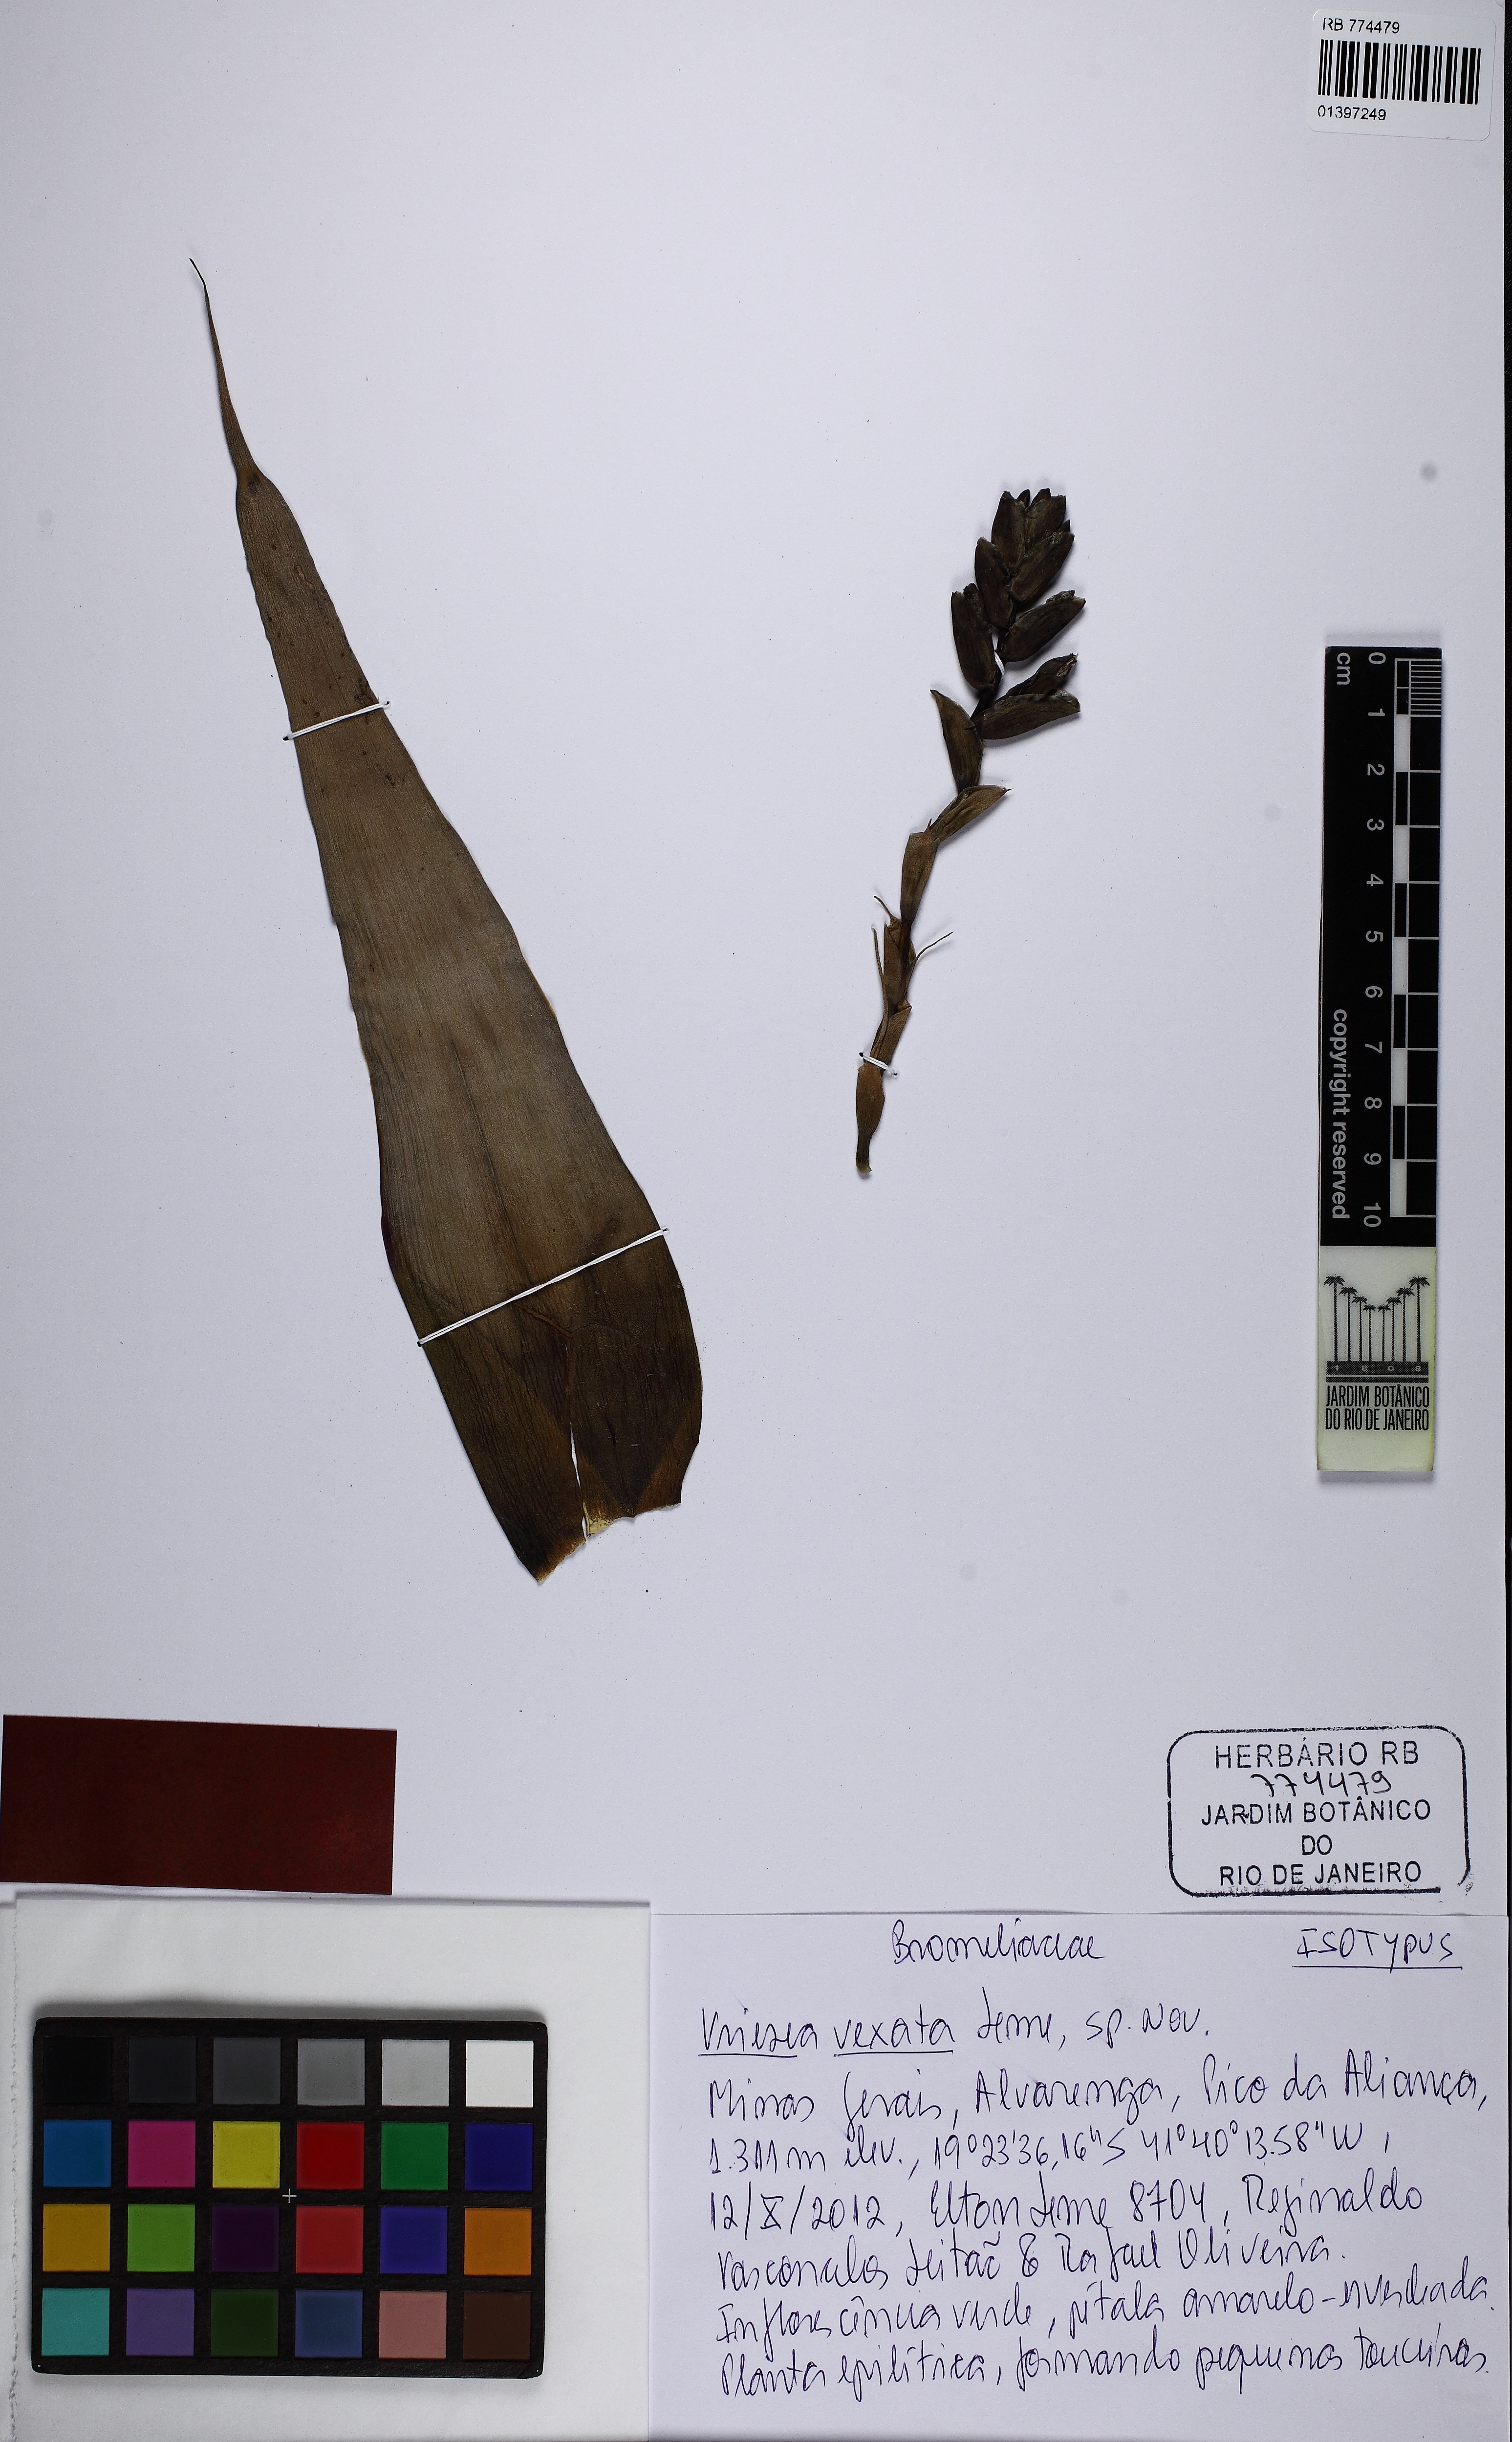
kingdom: Plantae
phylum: Tracheophyta
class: Liliopsida
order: Poales
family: Bromeliaceae
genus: Vriesea
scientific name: Vriesea vexata
